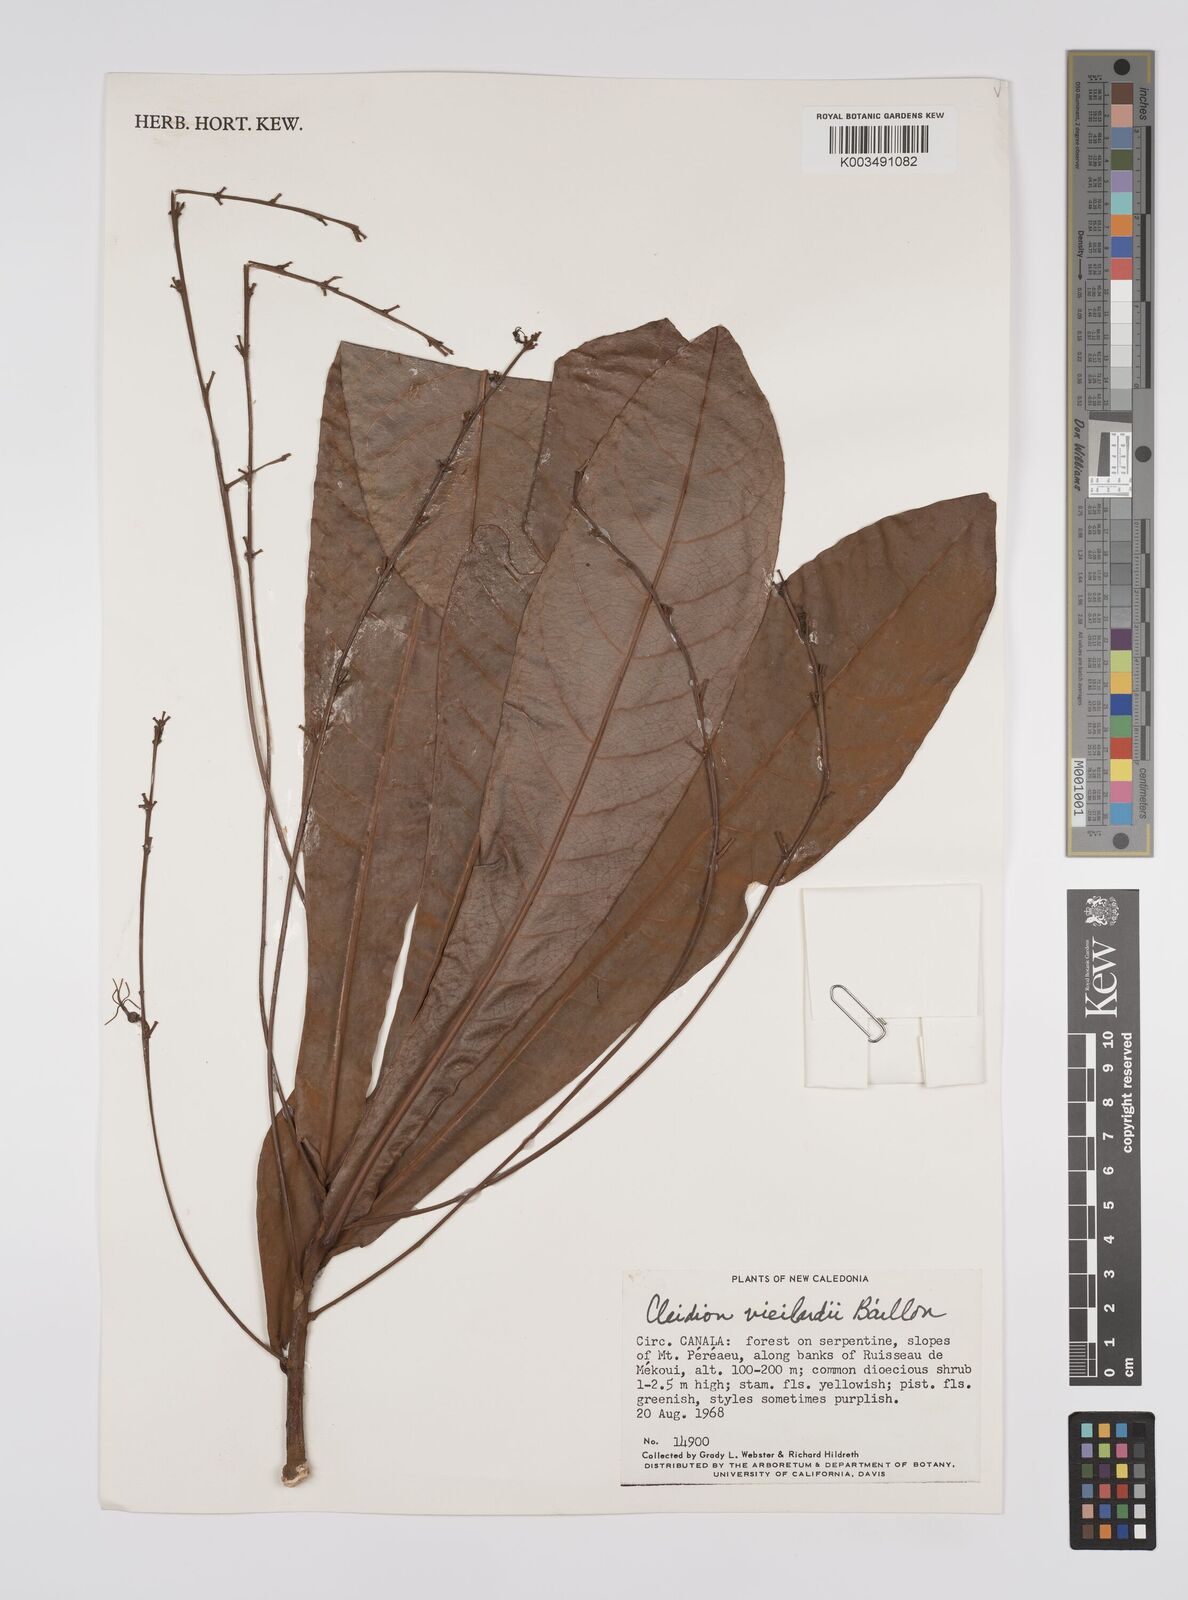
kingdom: Plantae
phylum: Tracheophyta
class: Magnoliopsida
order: Malpighiales
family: Euphorbiaceae
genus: Cleidion
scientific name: Cleidion vieillardii
